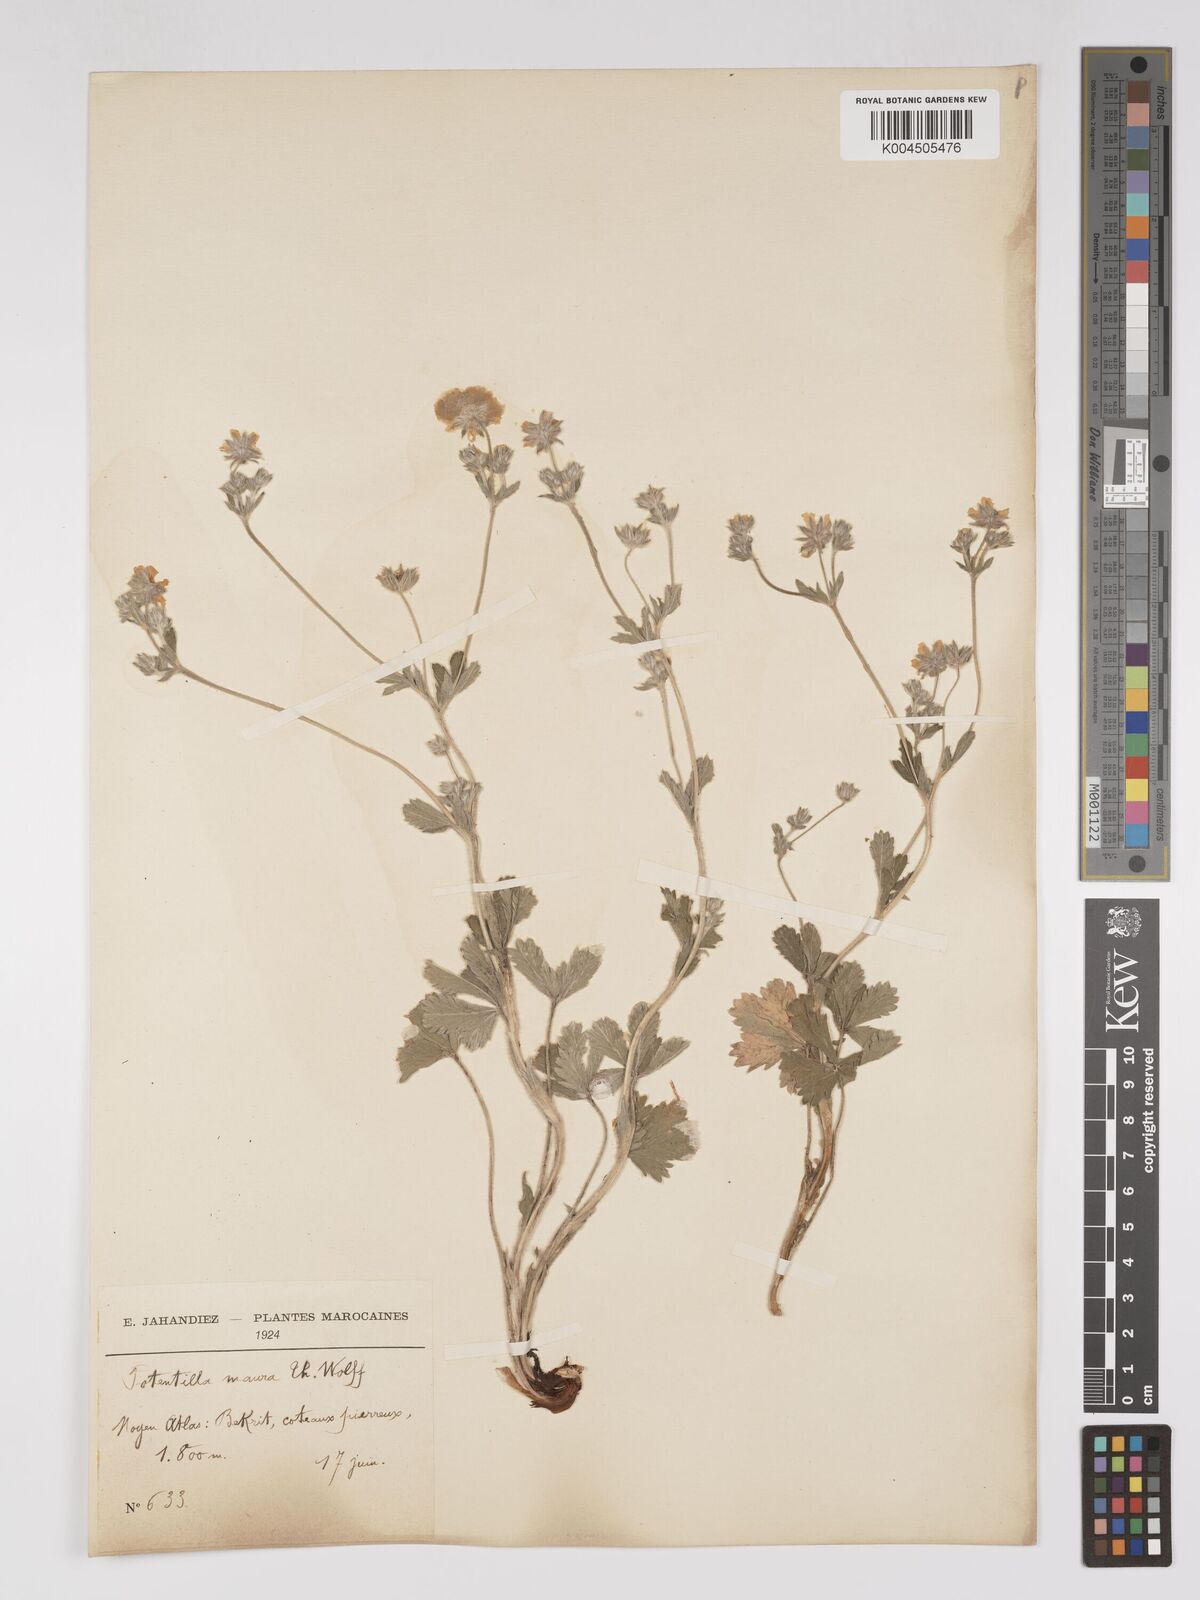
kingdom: Plantae
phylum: Tracheophyta
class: Magnoliopsida
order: Rosales
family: Rosaceae
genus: Potentilla
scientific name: Potentilla maura
